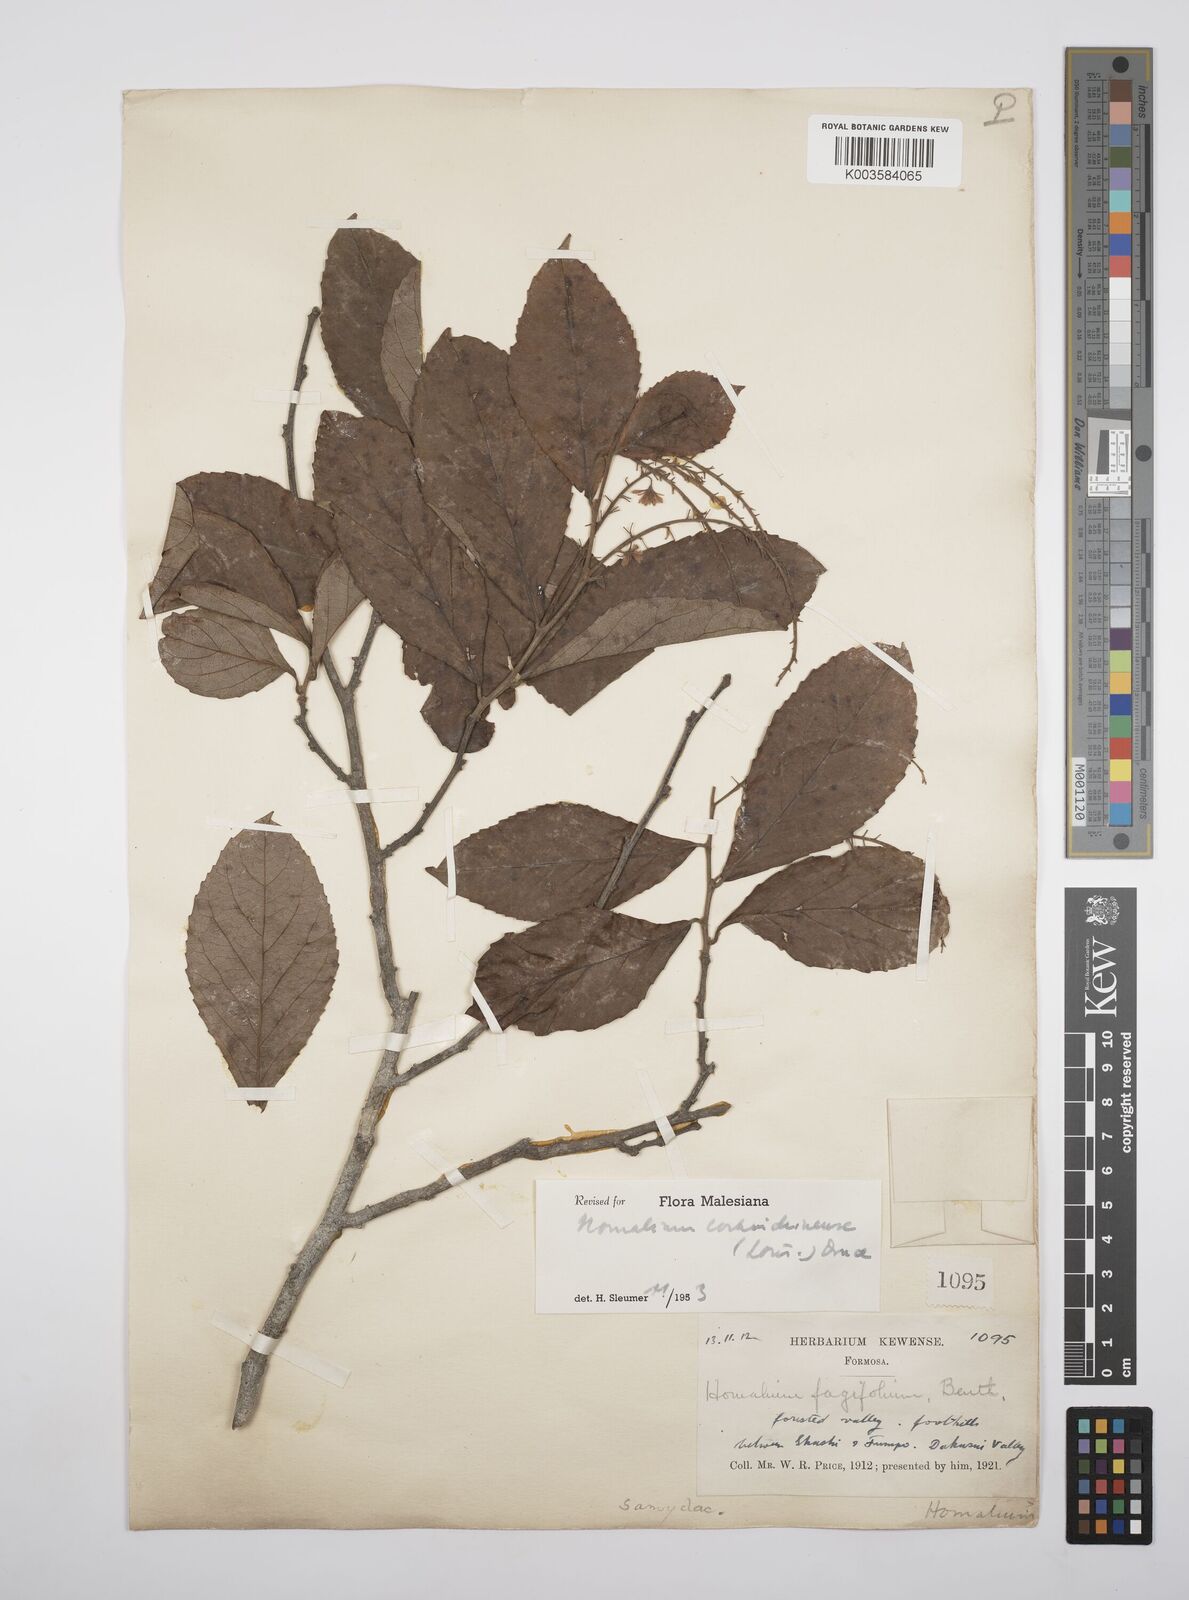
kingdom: Plantae
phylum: Tracheophyta
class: Magnoliopsida
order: Malpighiales
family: Salicaceae
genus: Homalium
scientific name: Homalium cochinchinensis
